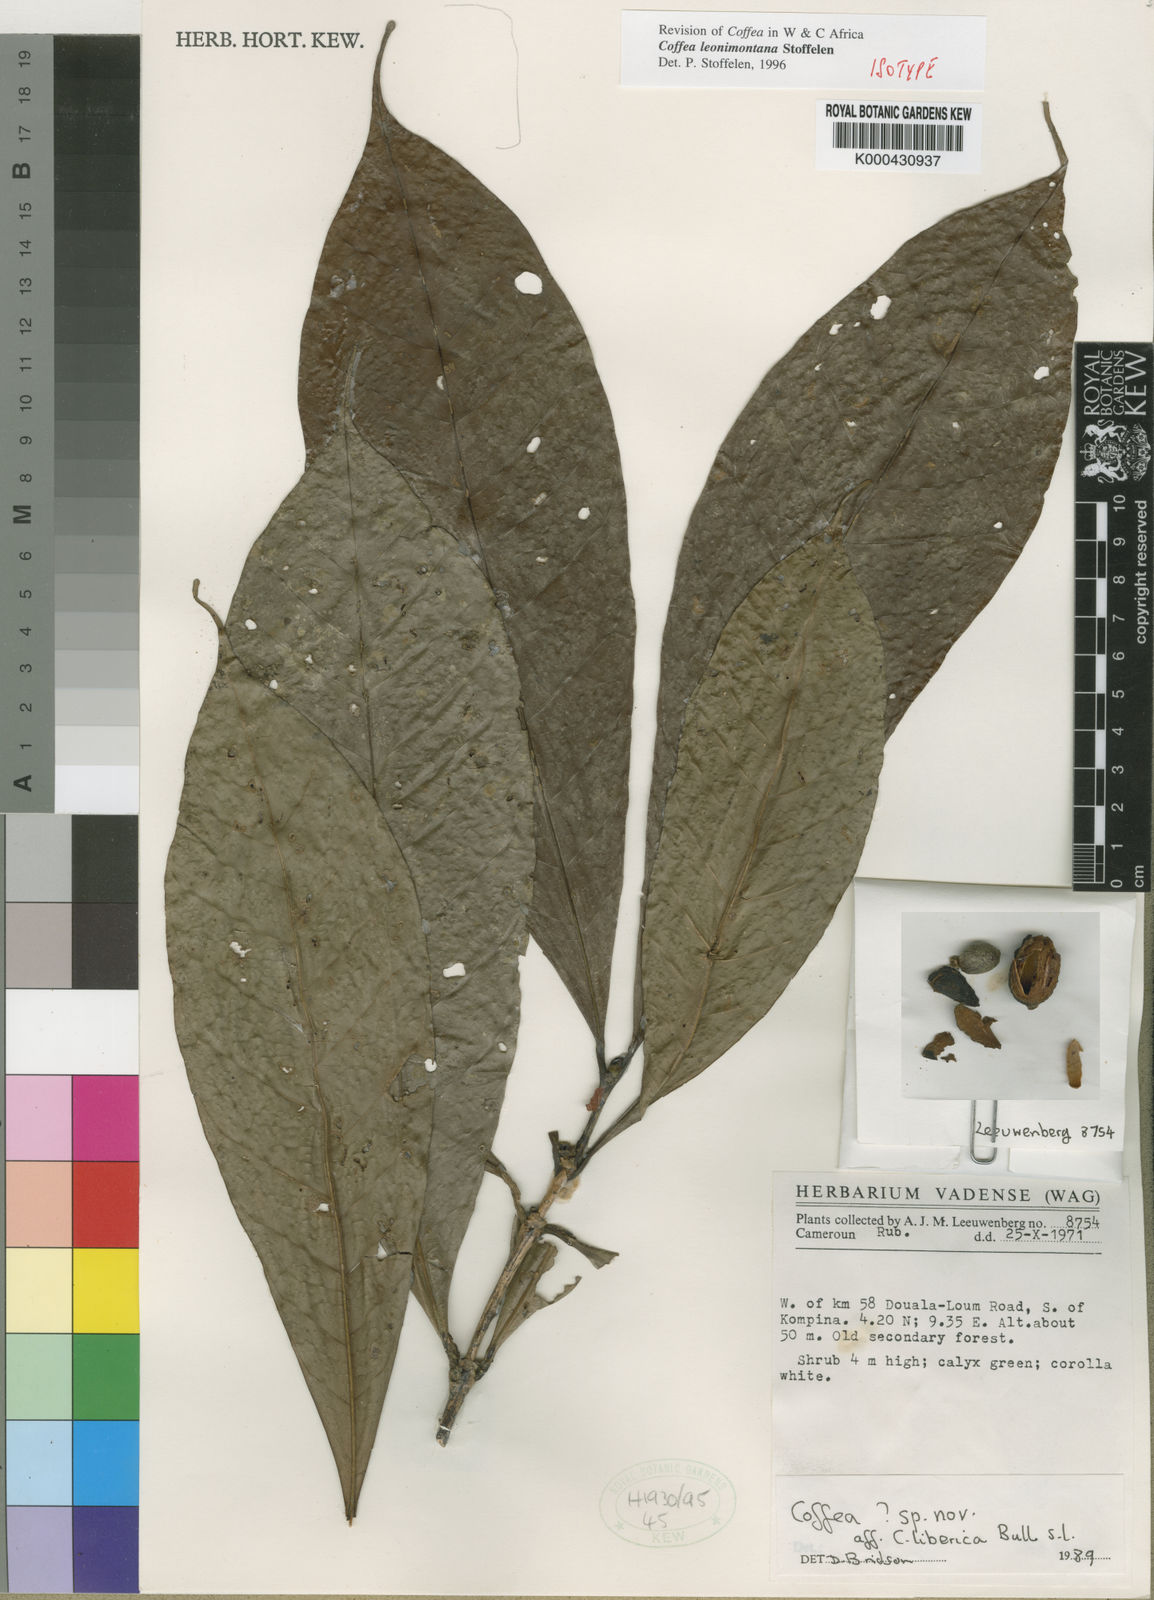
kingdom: Plantae
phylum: Tracheophyta
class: Magnoliopsida
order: Gentianales
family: Rubiaceae
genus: Coffea
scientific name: Coffea leonimontana
